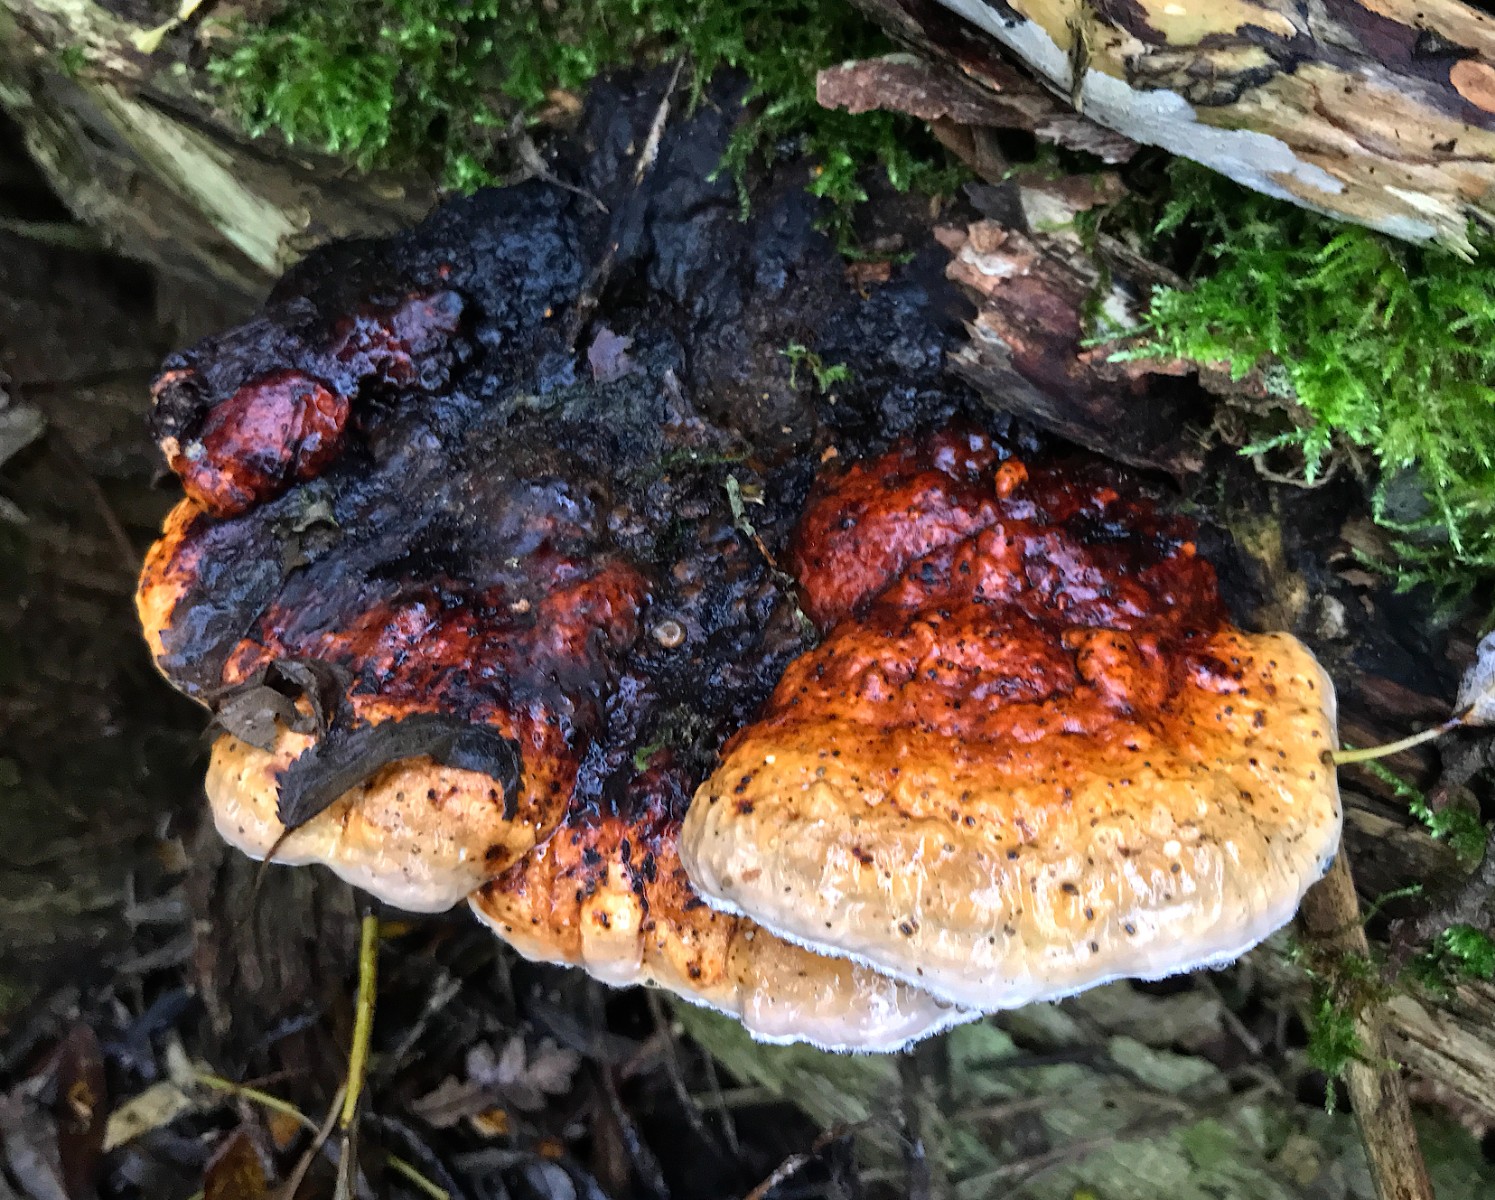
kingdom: Fungi
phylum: Basidiomycota
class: Agaricomycetes
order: Polyporales
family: Fomitopsidaceae
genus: Fomitopsis
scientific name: Fomitopsis pinicola
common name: randbæltet hovporesvamp
